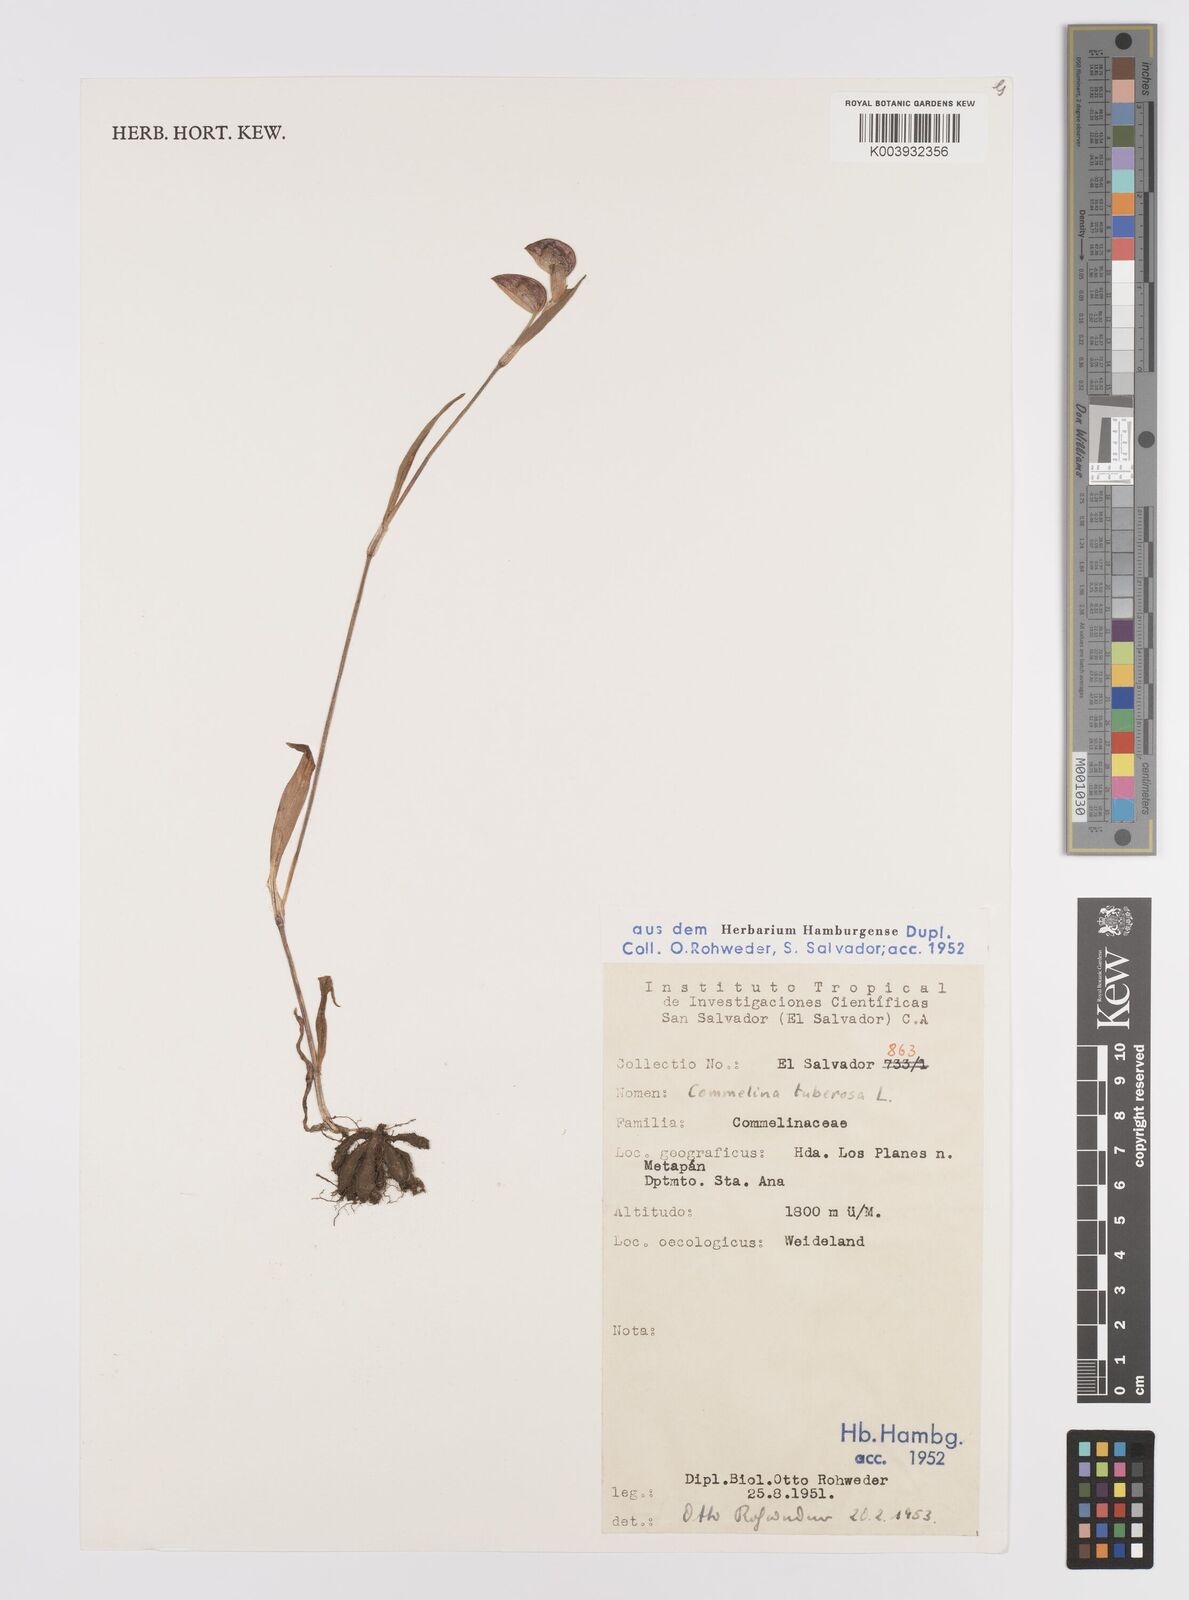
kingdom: Plantae
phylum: Tracheophyta
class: Liliopsida
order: Commelinales
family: Commelinaceae
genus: Commelina
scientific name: Commelina tuberosa
